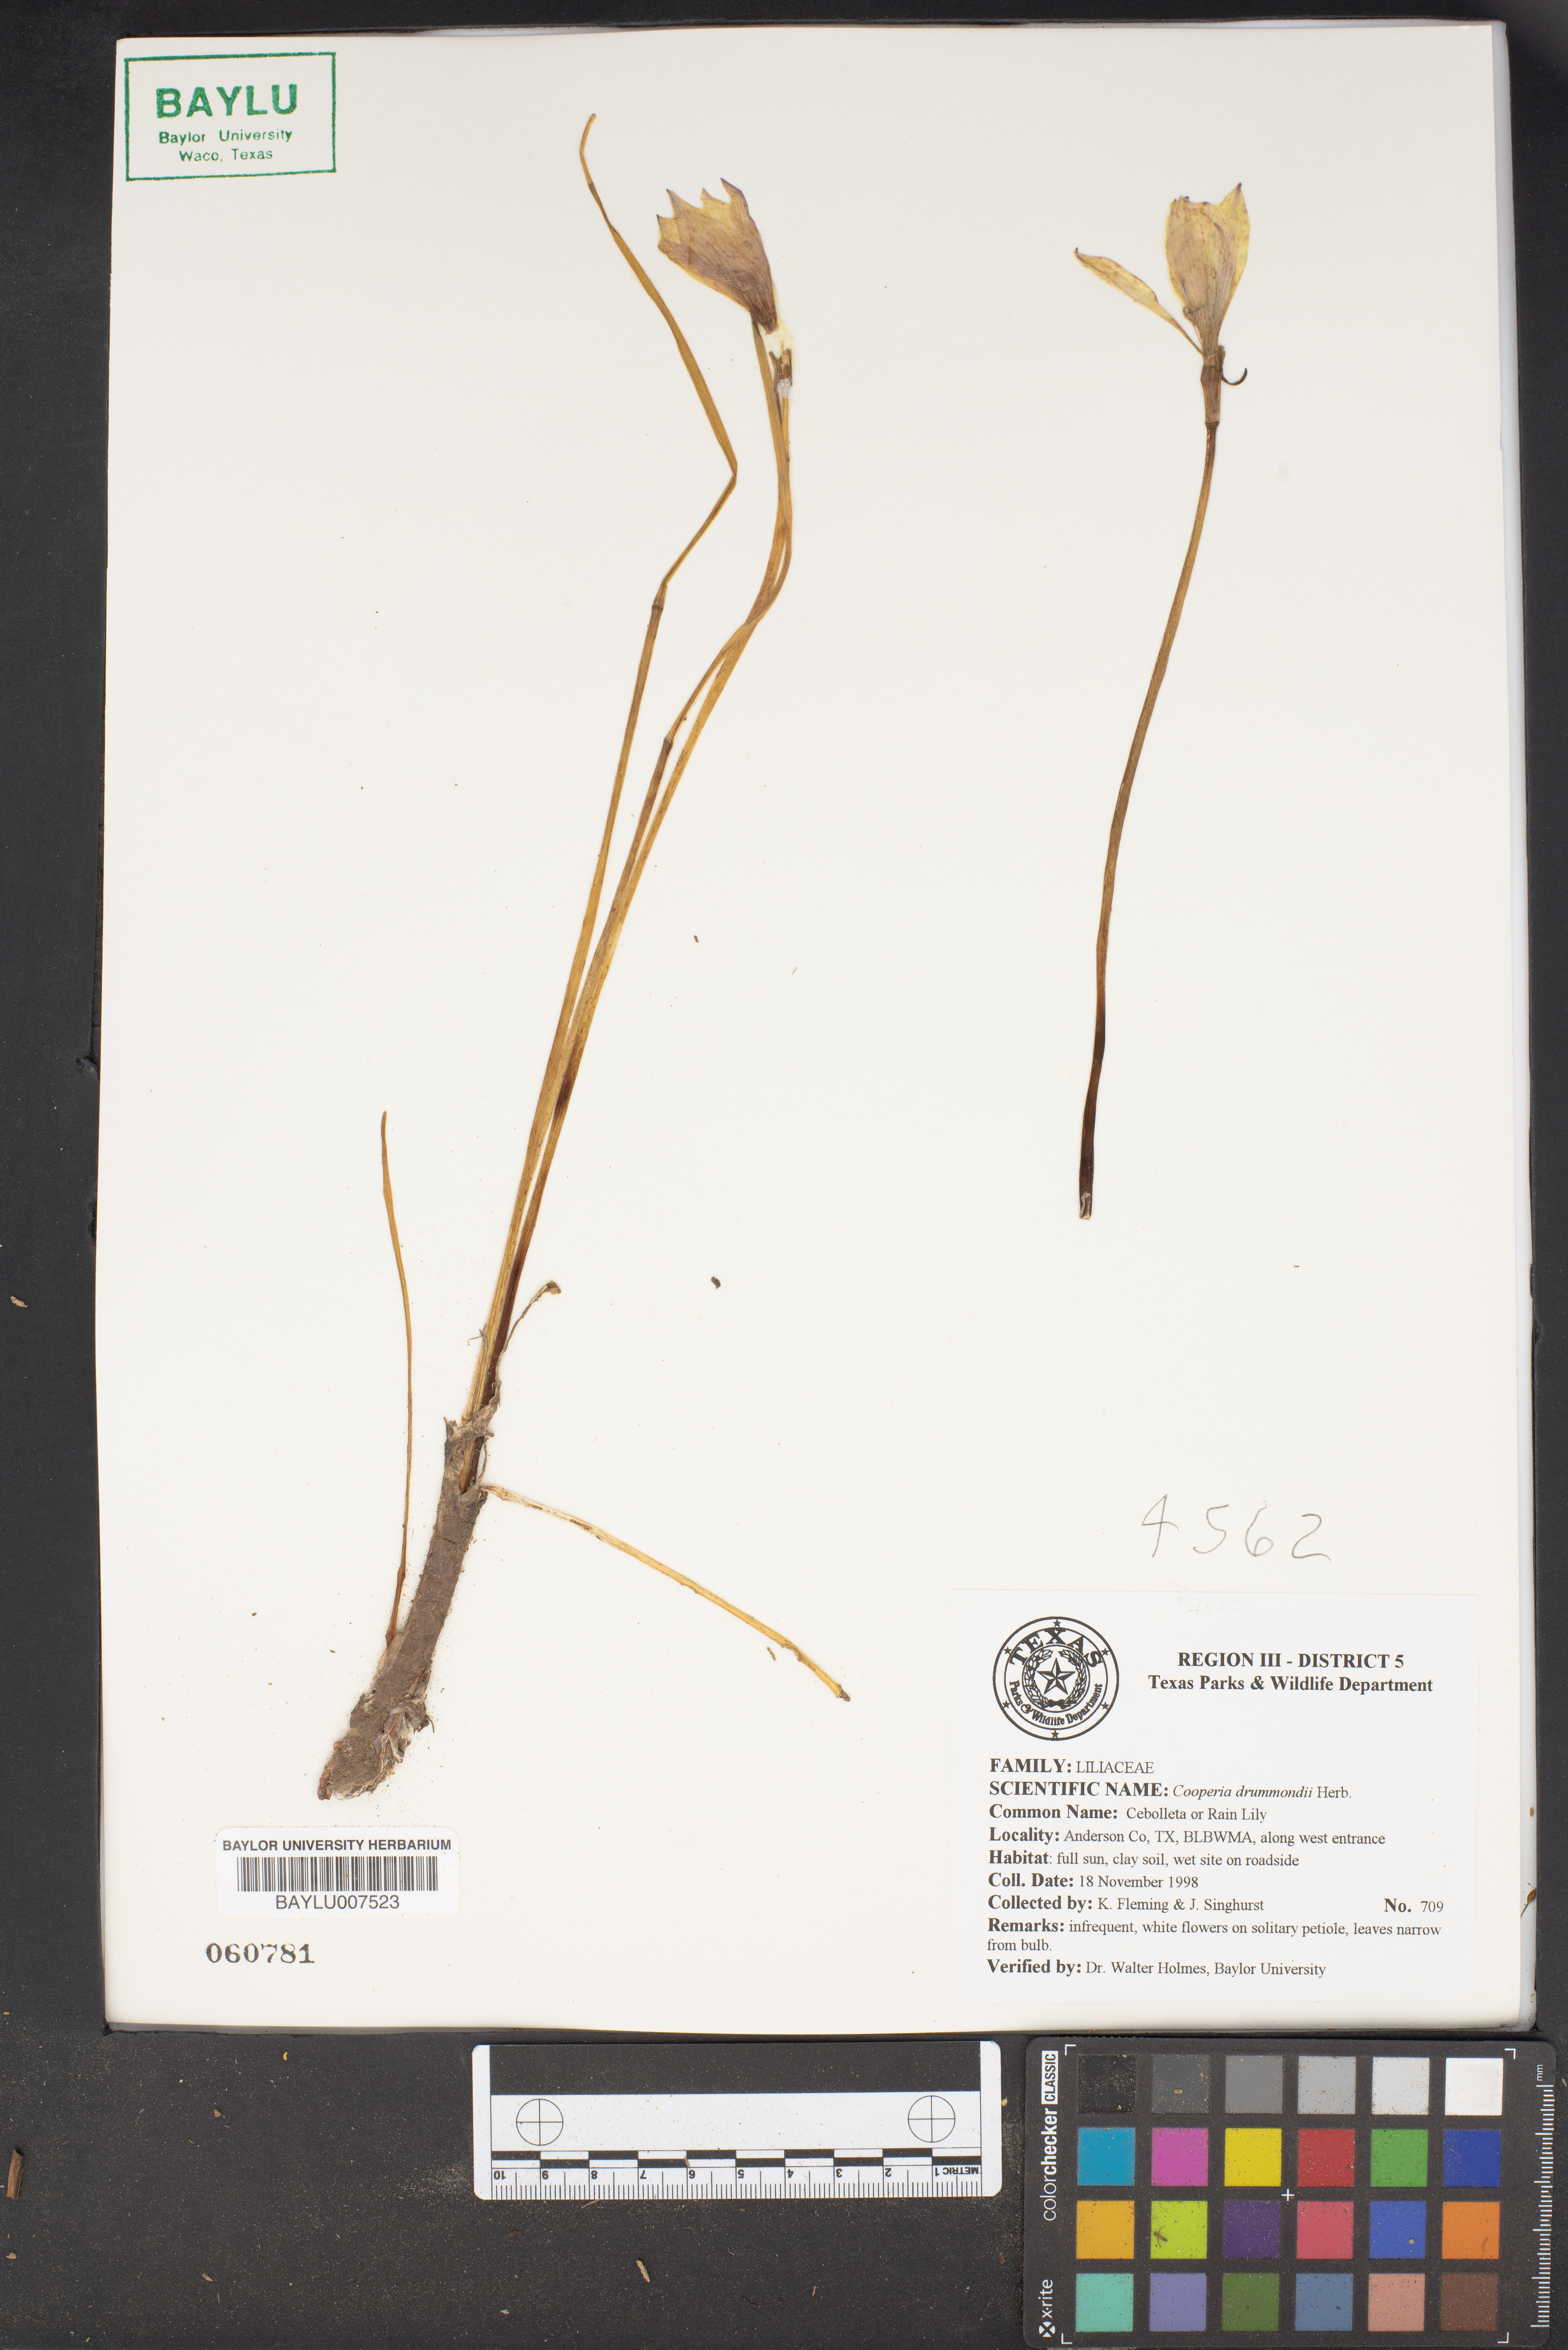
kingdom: Plantae
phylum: Tracheophyta
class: Liliopsida
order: Asparagales
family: Amaryllidaceae
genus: Zephyranthes
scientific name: Zephyranthes chlorosolen
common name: Evening rain-lily
